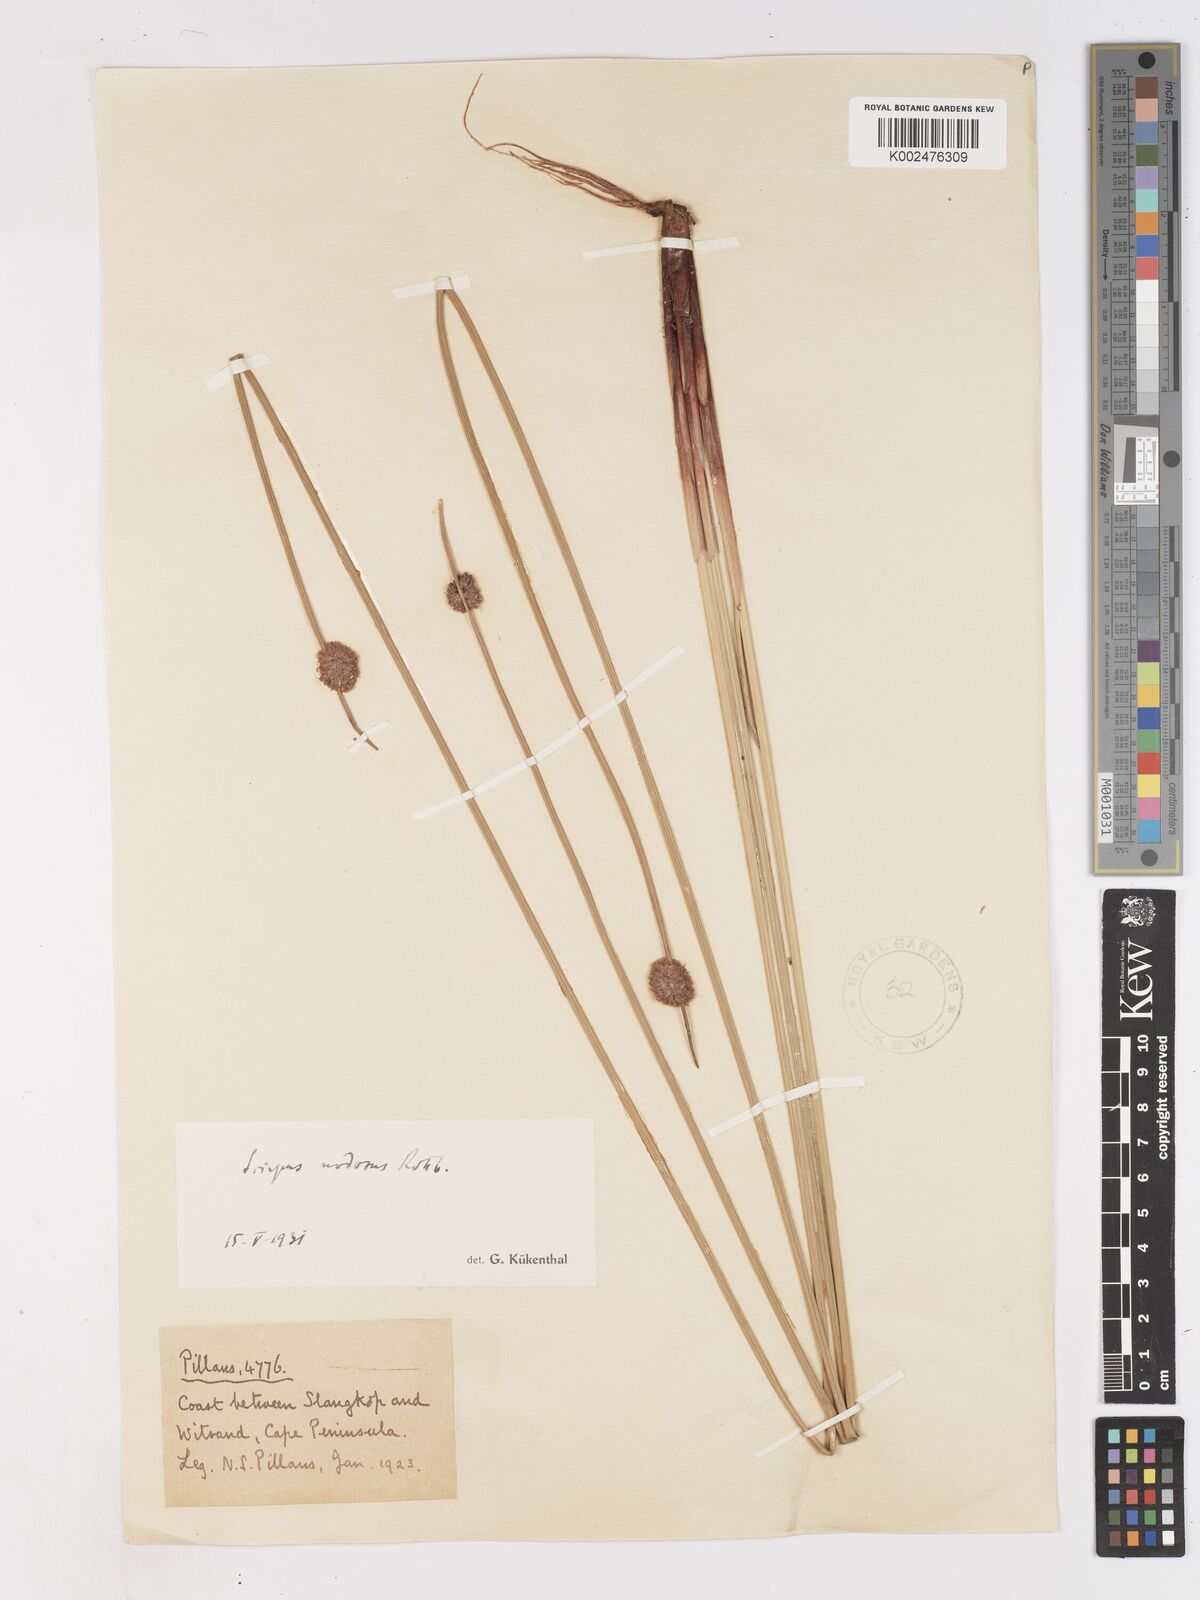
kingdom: Plantae
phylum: Tracheophyta
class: Liliopsida
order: Poales
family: Cyperaceae
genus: Ficinia
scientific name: Ficinia nodosa
